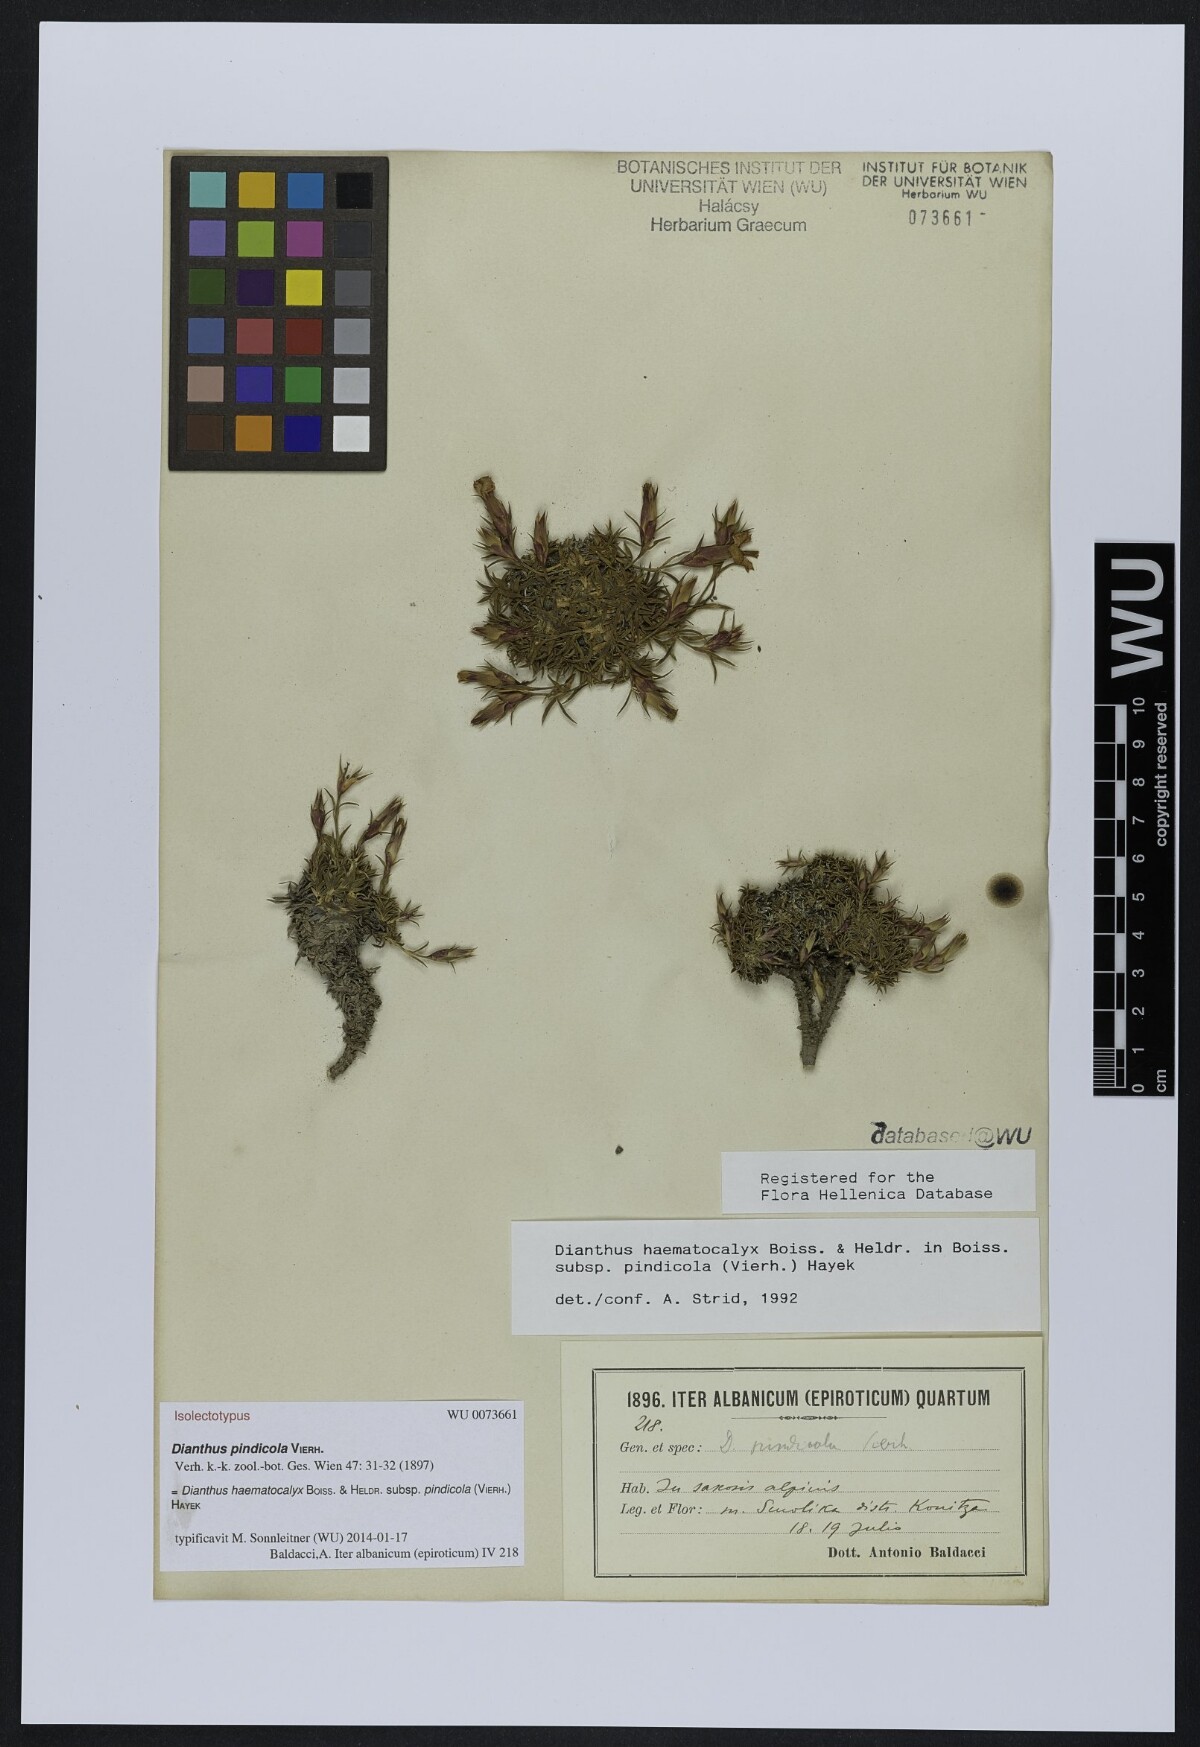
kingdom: Plantae
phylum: Tracheophyta
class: Magnoliopsida
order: Caryophyllales
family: Caryophyllaceae
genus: Dianthus
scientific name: Dianthus haematocalyx
